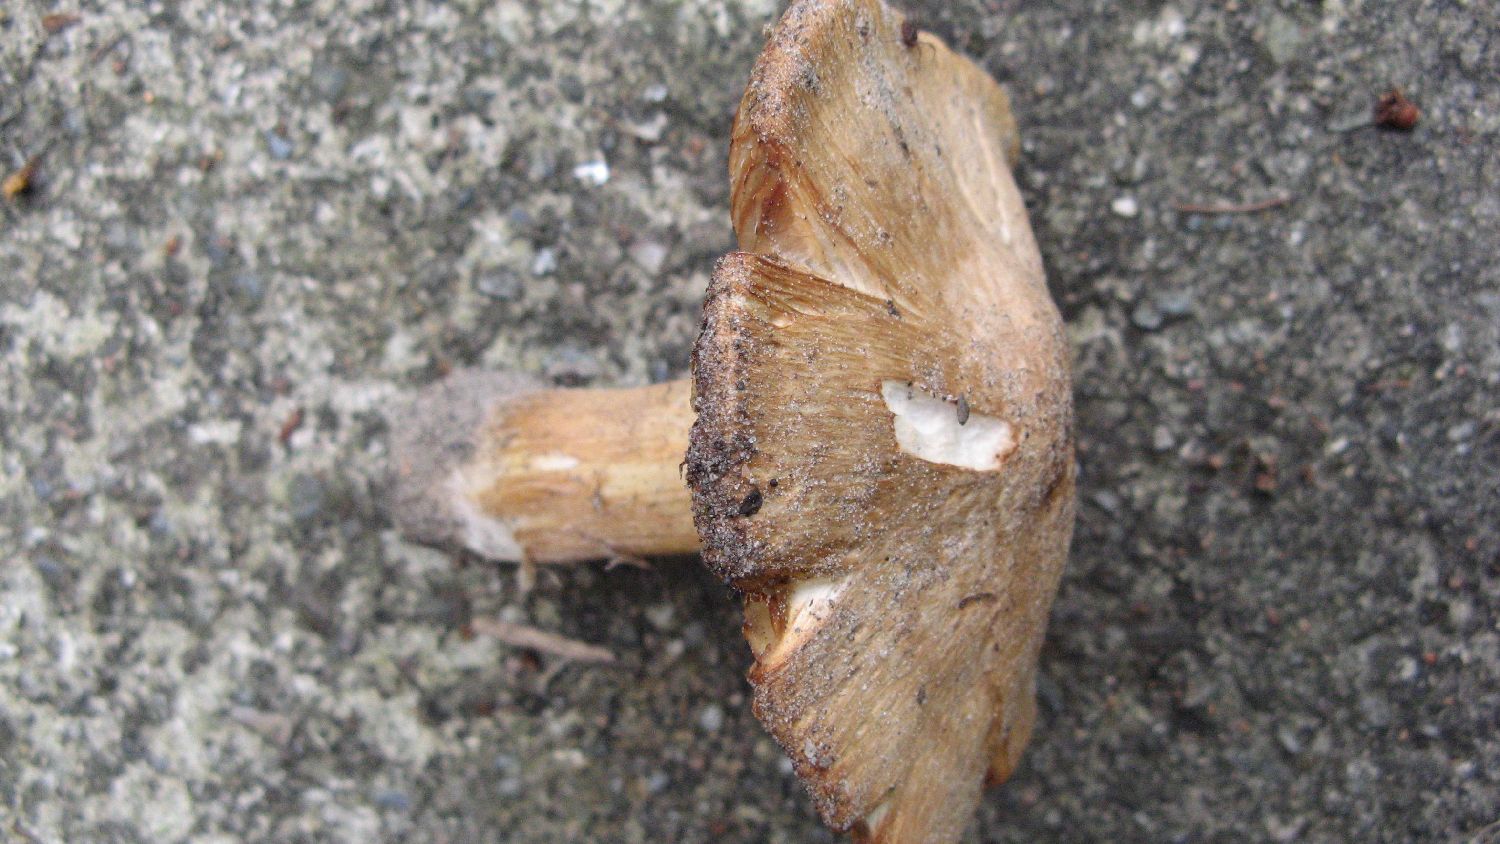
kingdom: Fungi
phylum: Basidiomycota
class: Agaricomycetes
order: Agaricales
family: Inocybaceae
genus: Inosperma
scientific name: Inosperma erubescens
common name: giftig trævlhat
